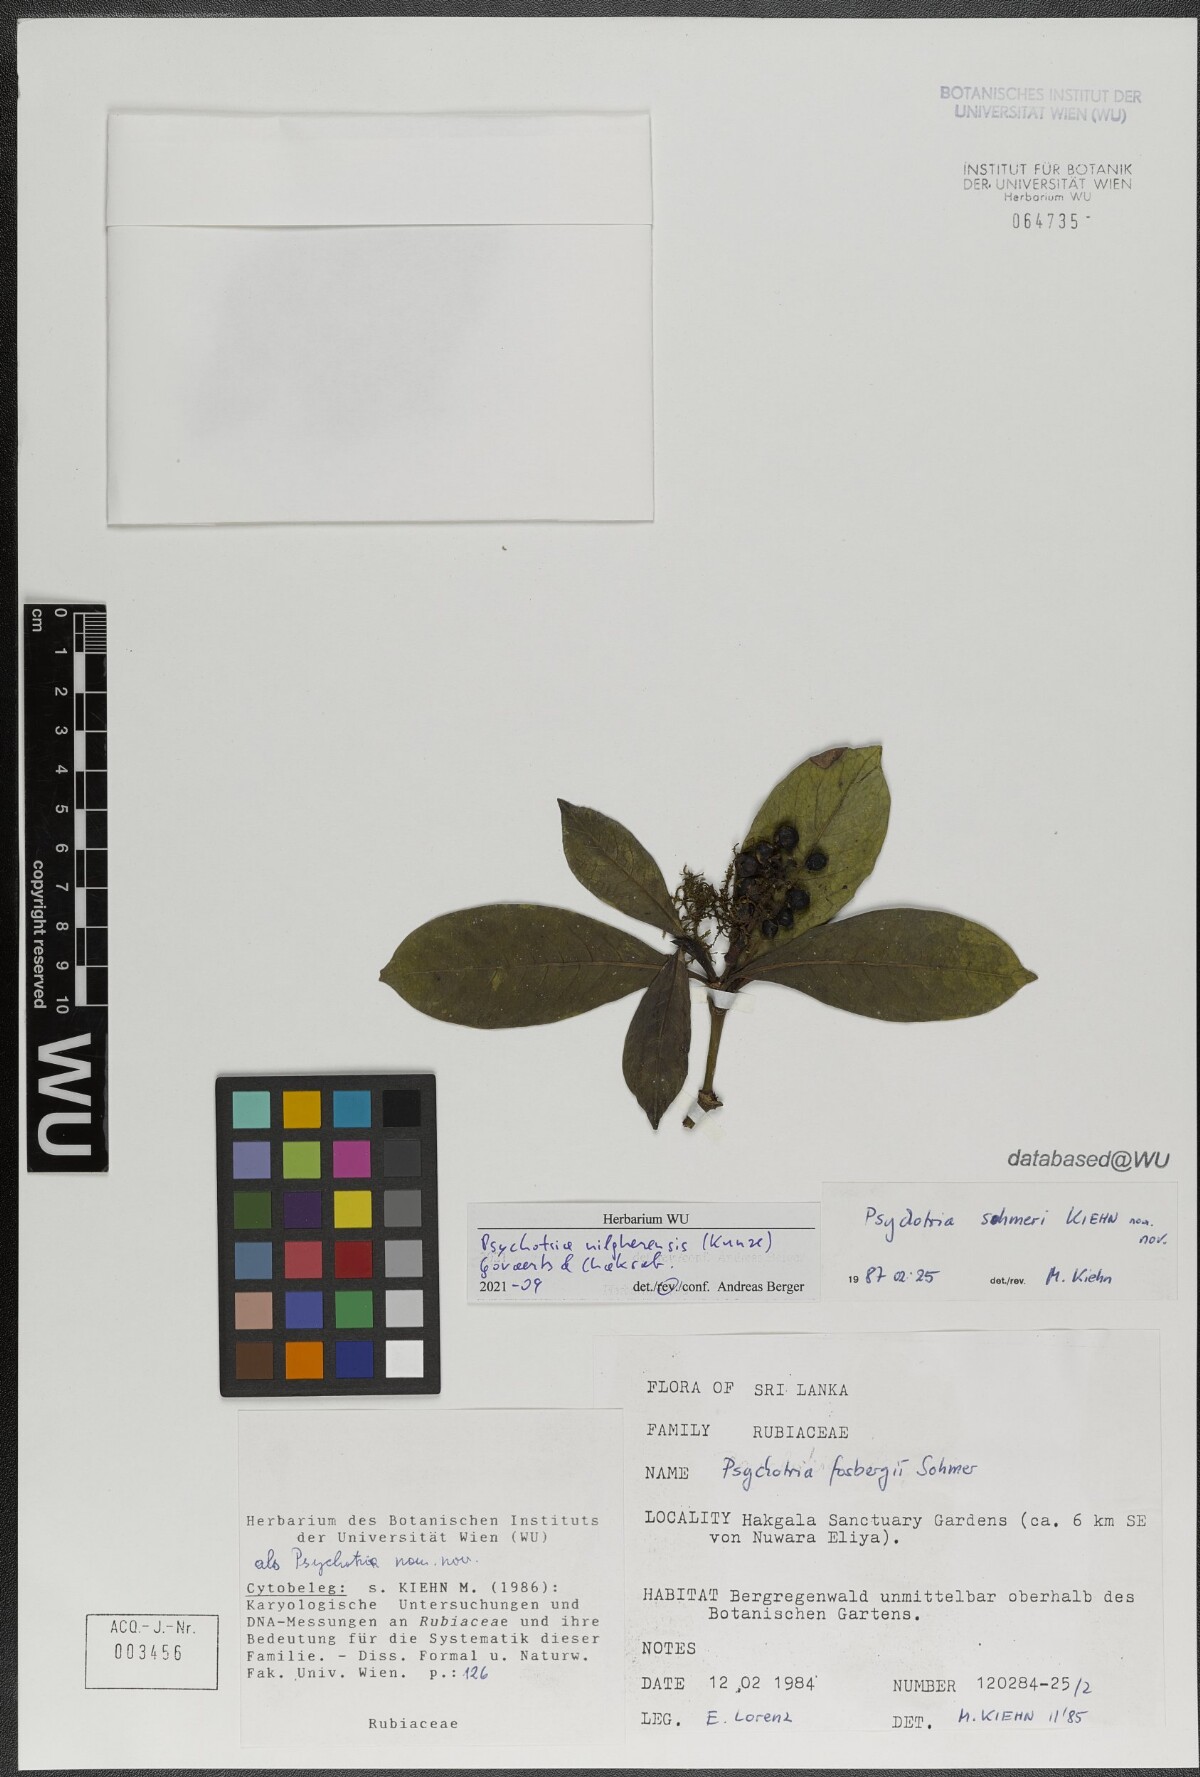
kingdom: Plantae
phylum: Tracheophyta
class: Magnoliopsida
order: Gentianales
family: Rubiaceae
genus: Psychotria
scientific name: Psychotria nilgherensis
